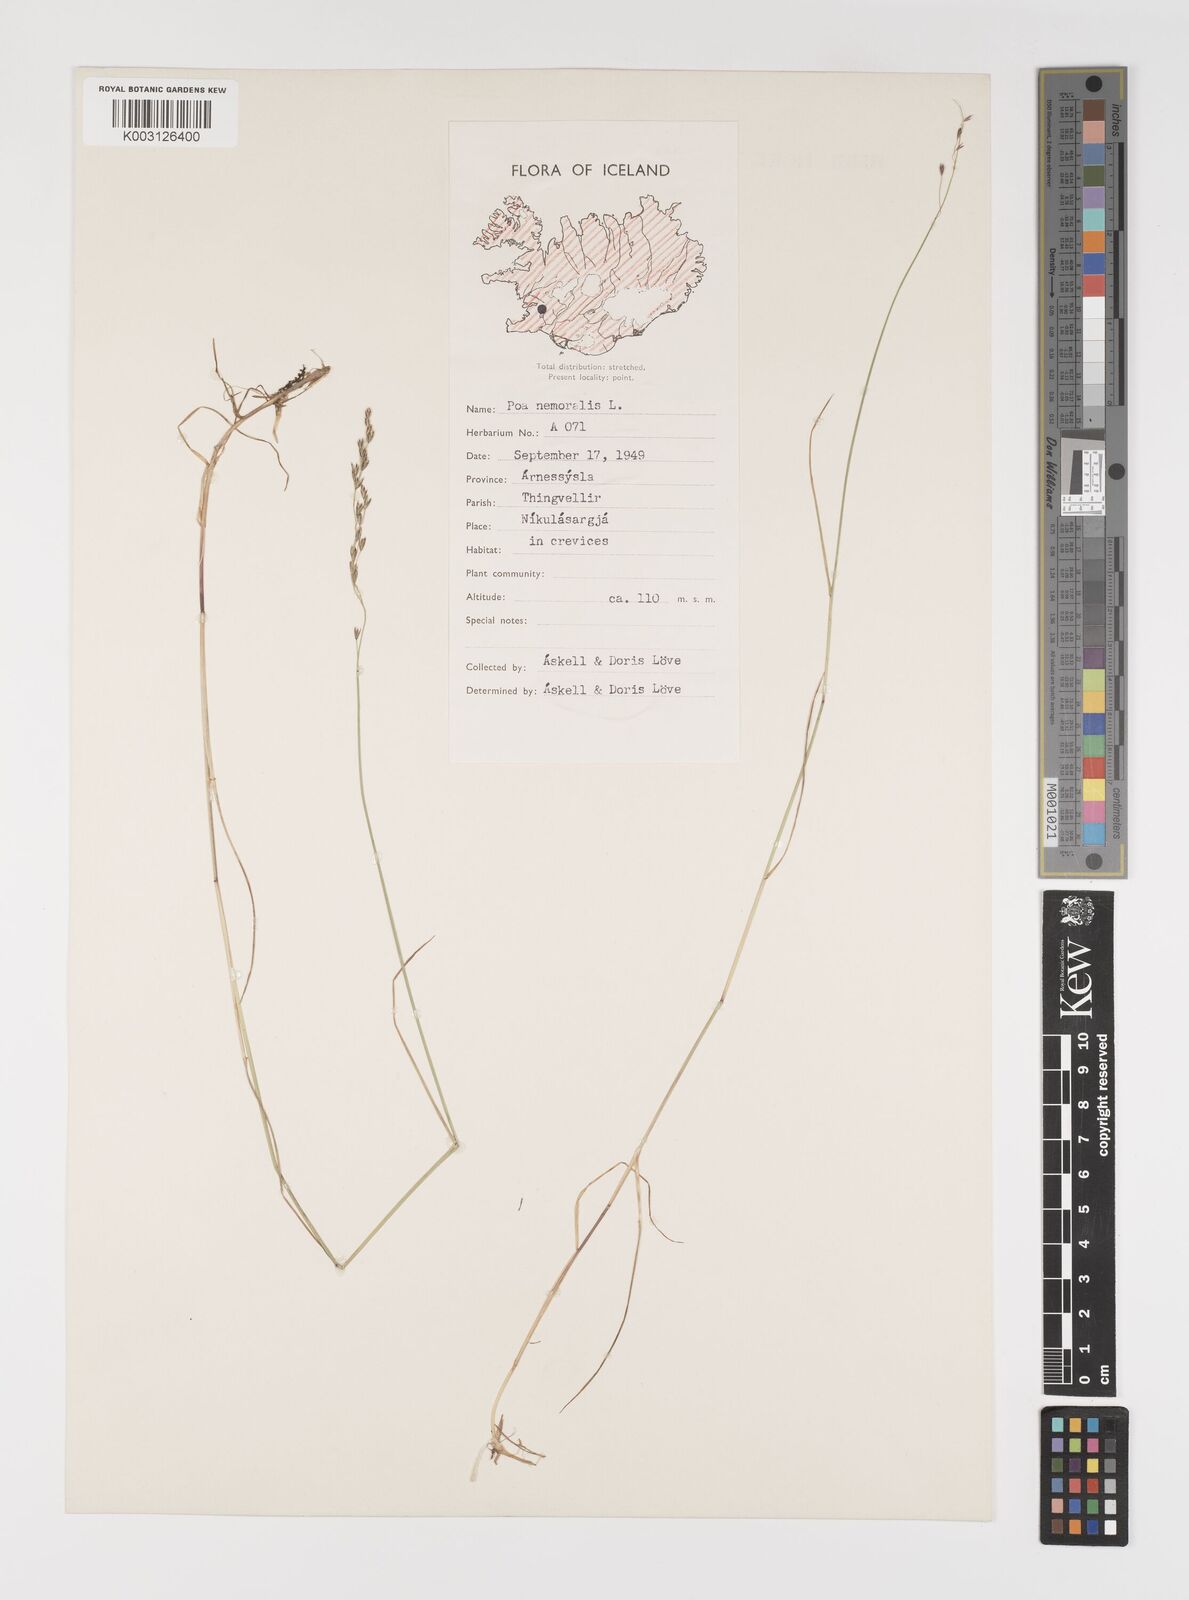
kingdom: Plantae
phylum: Tracheophyta
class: Liliopsida
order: Poales
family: Poaceae
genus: Poa
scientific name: Poa nemoralis
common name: Wood bluegrass
